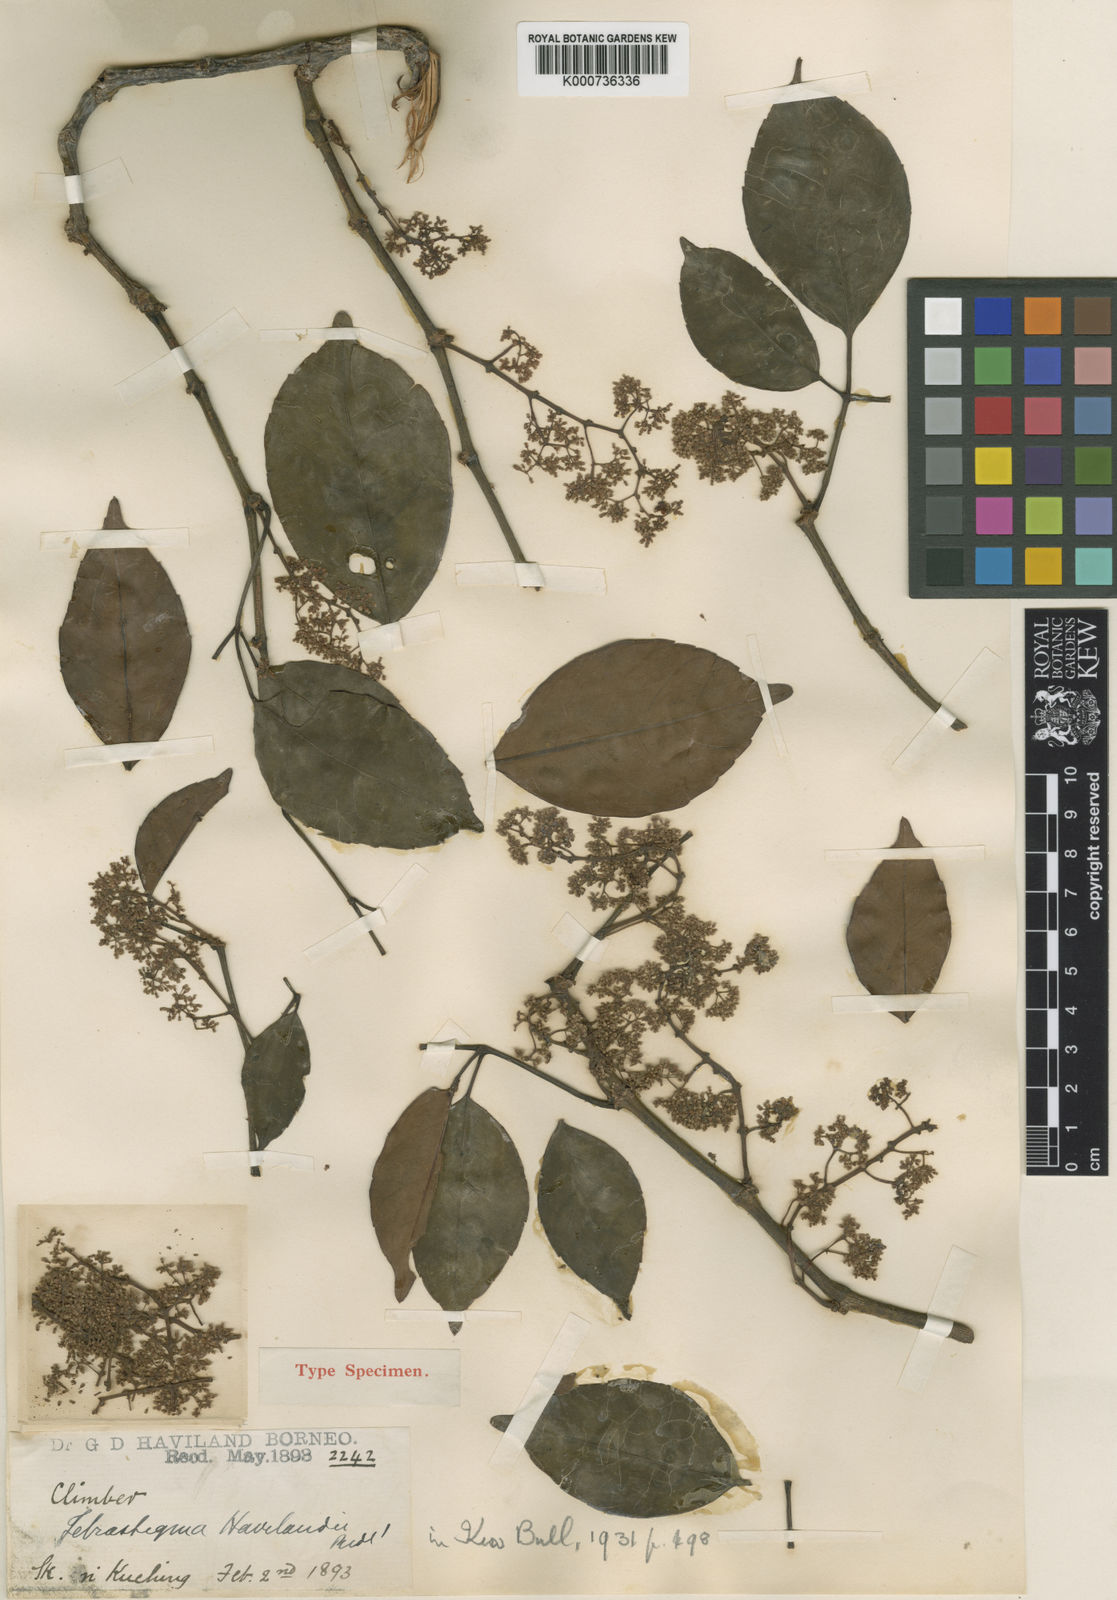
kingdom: Plantae
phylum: Tracheophyta
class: Magnoliopsida
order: Vitales
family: Vitaceae
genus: Tetrastigma
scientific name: Tetrastigma havilandii
